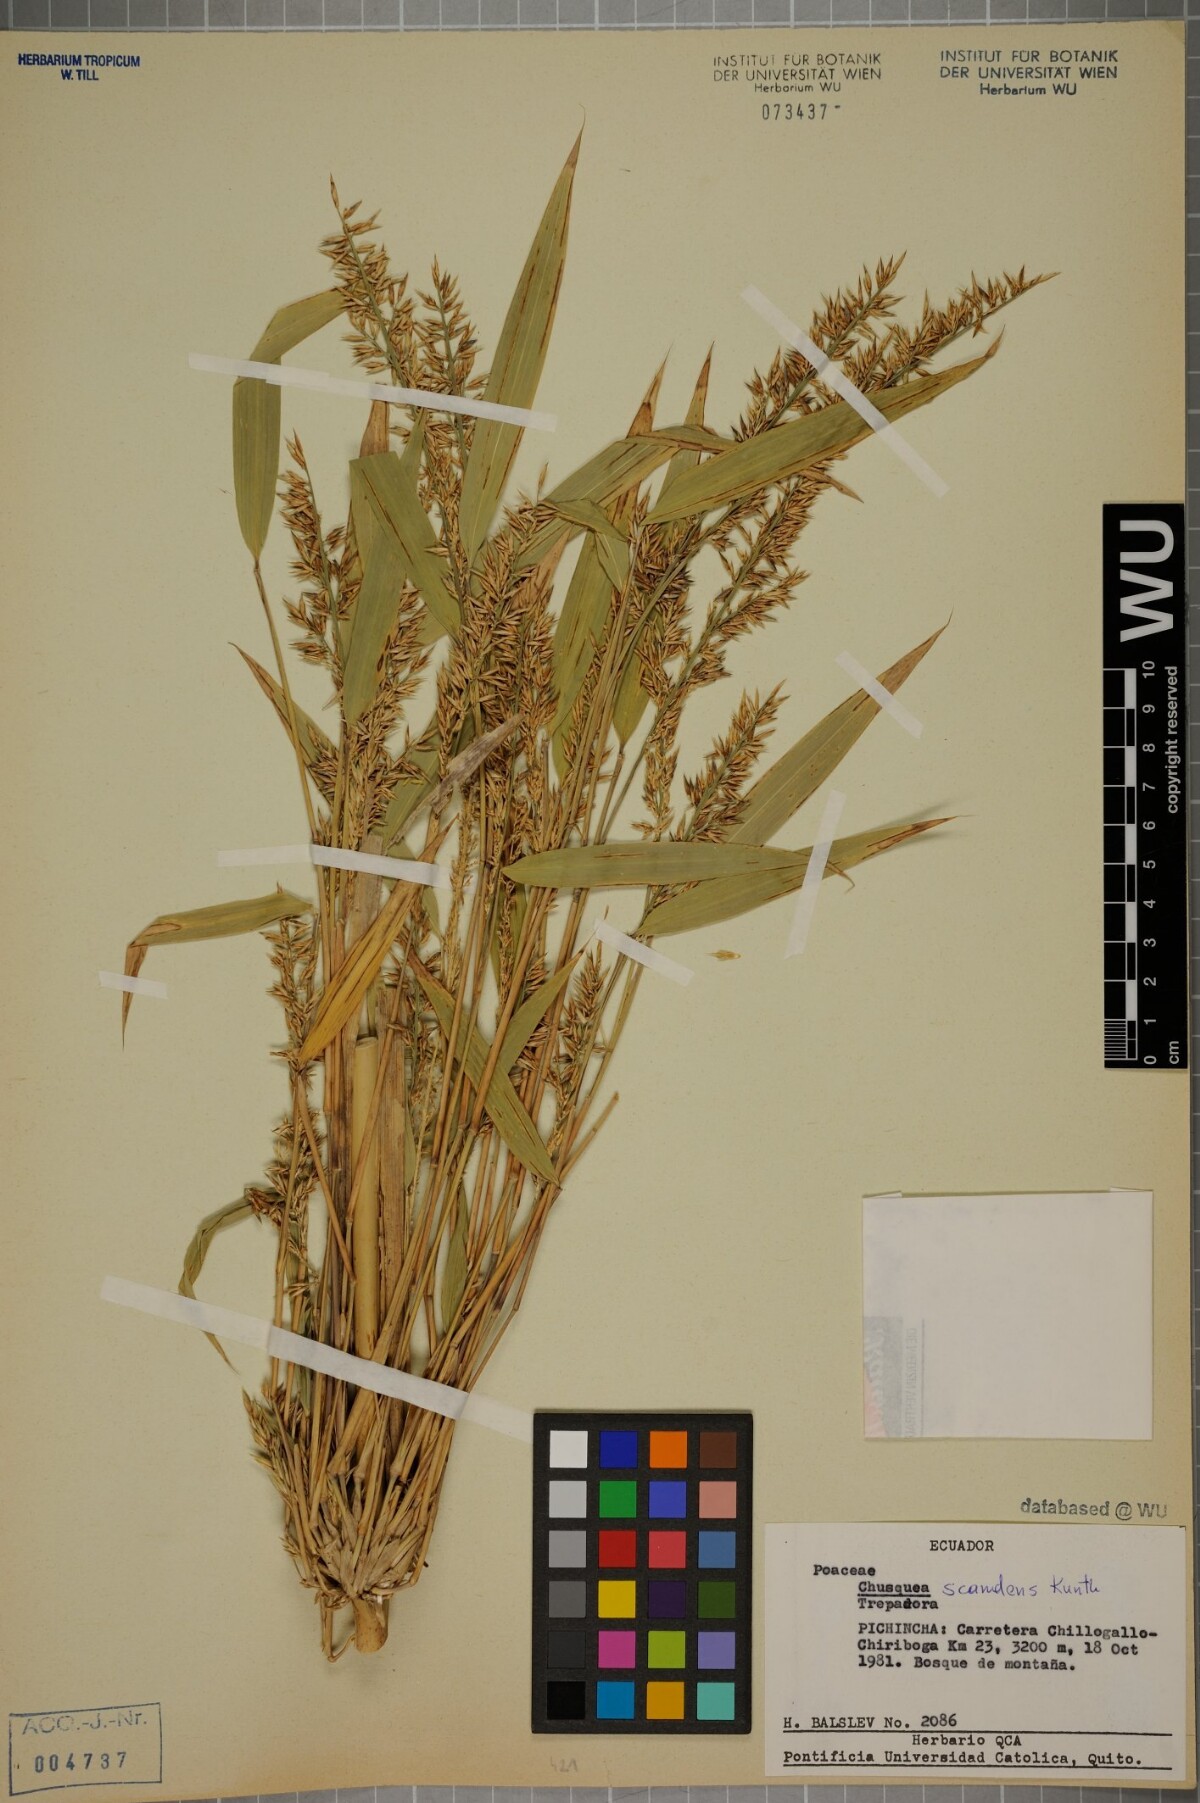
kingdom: Plantae
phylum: Tracheophyta
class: Liliopsida
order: Poales
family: Poaceae
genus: Chusquea
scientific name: Chusquea scandens
